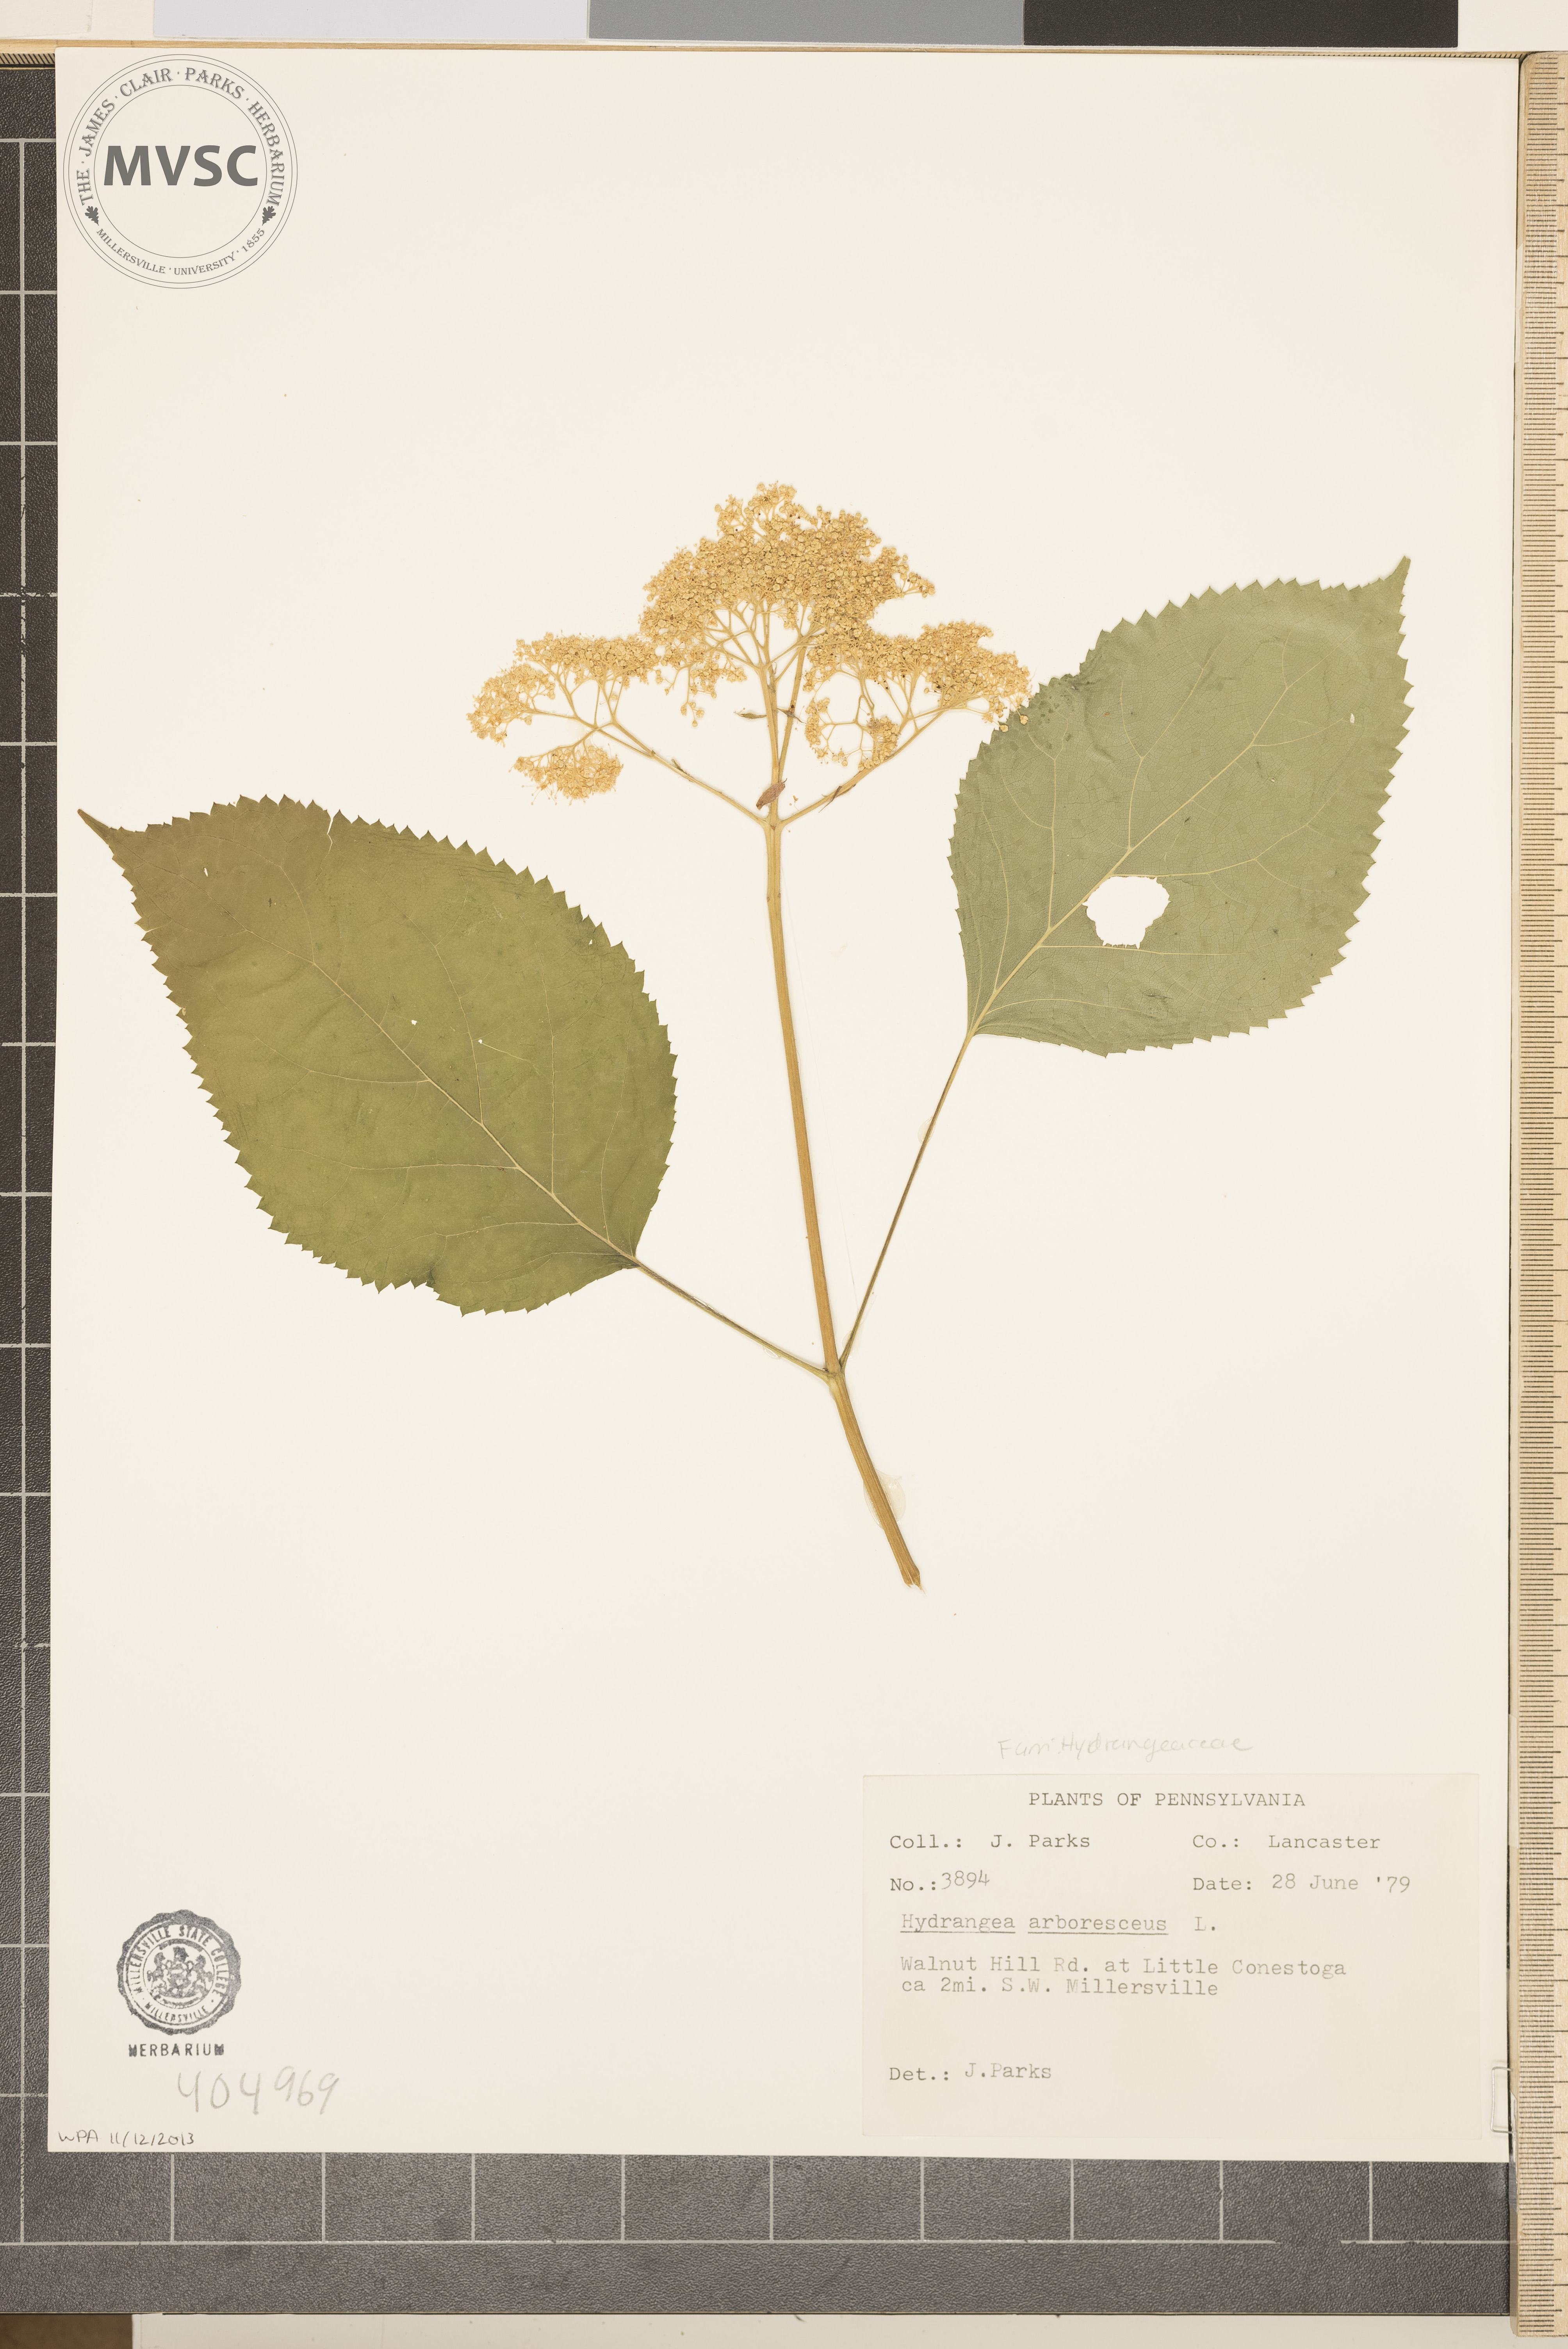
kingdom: Plantae
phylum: Tracheophyta
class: Magnoliopsida
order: Cornales
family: Hydrangeaceae
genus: Hydrangea
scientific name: Hydrangea arborescens
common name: Sevenbark
